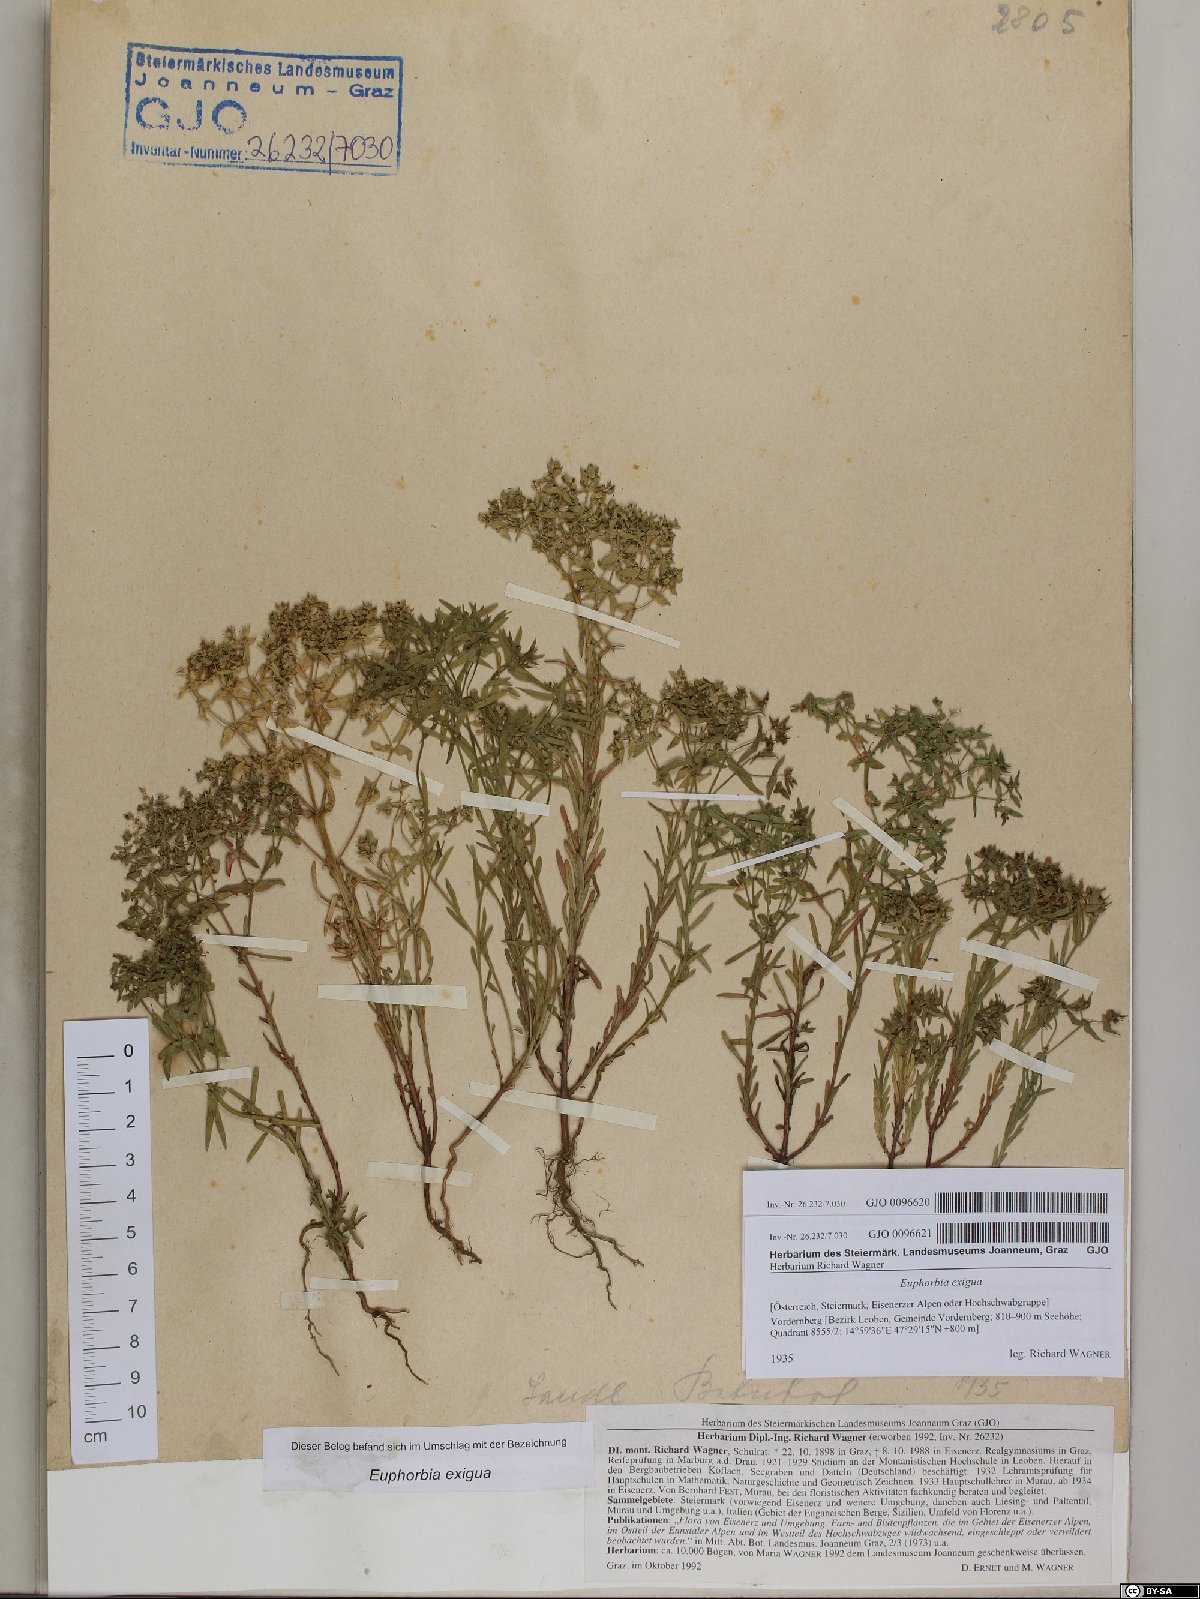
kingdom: Plantae
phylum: Tracheophyta
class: Magnoliopsida
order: Malpighiales
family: Euphorbiaceae
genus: Euphorbia
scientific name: Euphorbia exigua
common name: Dwarf spurge
